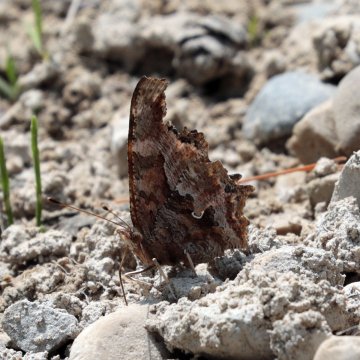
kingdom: Animalia
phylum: Arthropoda
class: Insecta
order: Lepidoptera
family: Nymphalidae
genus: Polygonia
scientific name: Polygonia comma
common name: Eastern Comma
